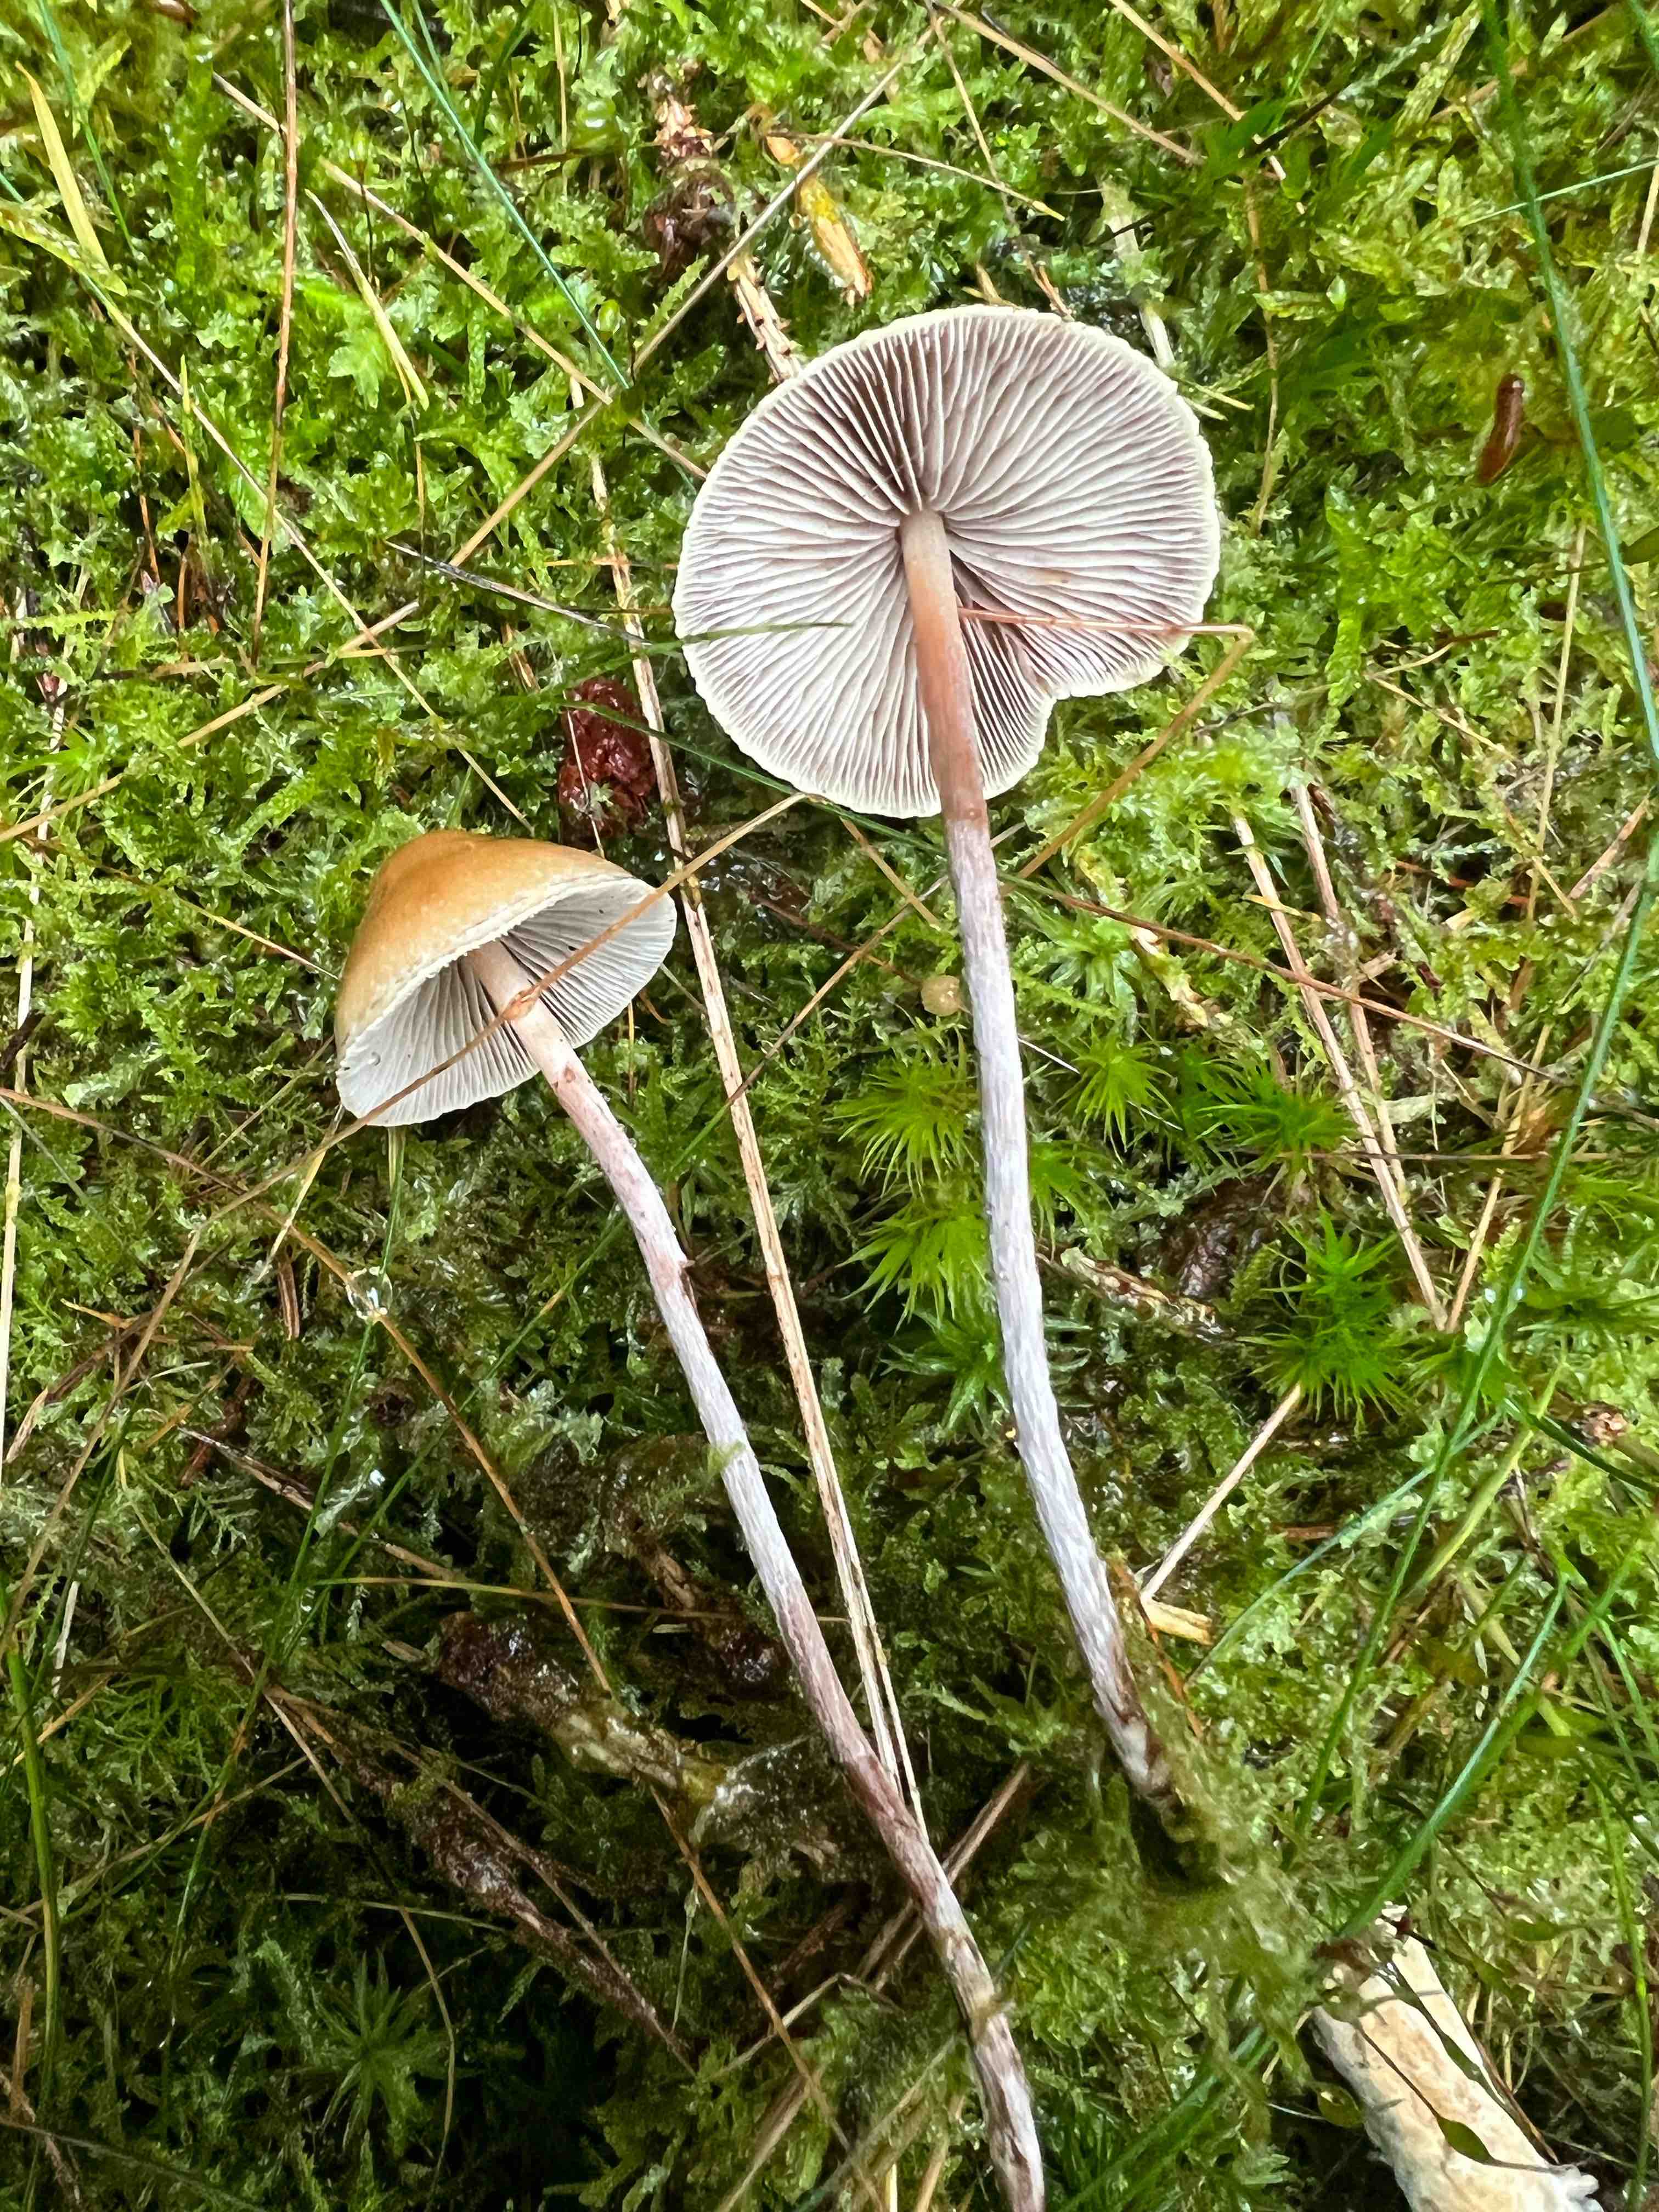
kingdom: Fungi
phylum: Basidiomycota
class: Agaricomycetes
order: Agaricales
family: Strophariaceae
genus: Hypholoma
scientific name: Hypholoma marginatum
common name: enlig svovlhat
